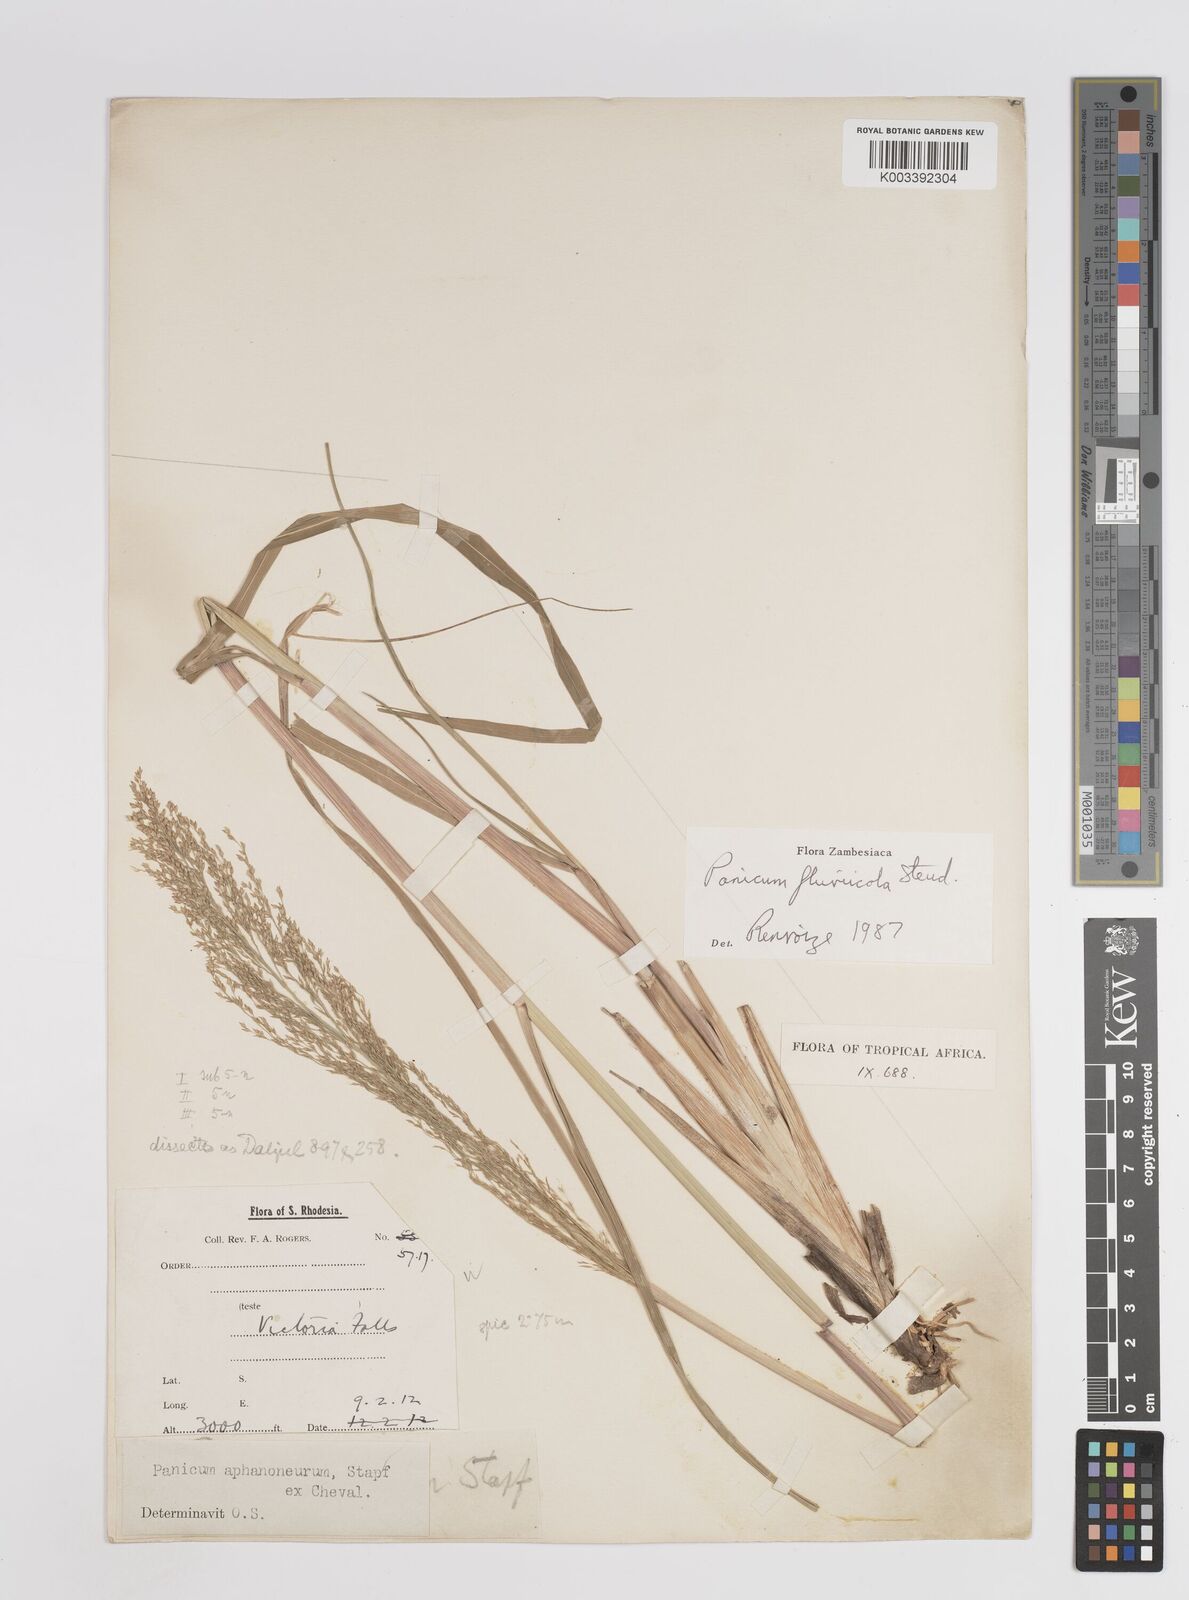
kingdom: Plantae
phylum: Tracheophyta
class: Liliopsida
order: Poales
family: Poaceae
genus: Panicum
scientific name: Panicum fluviicola
